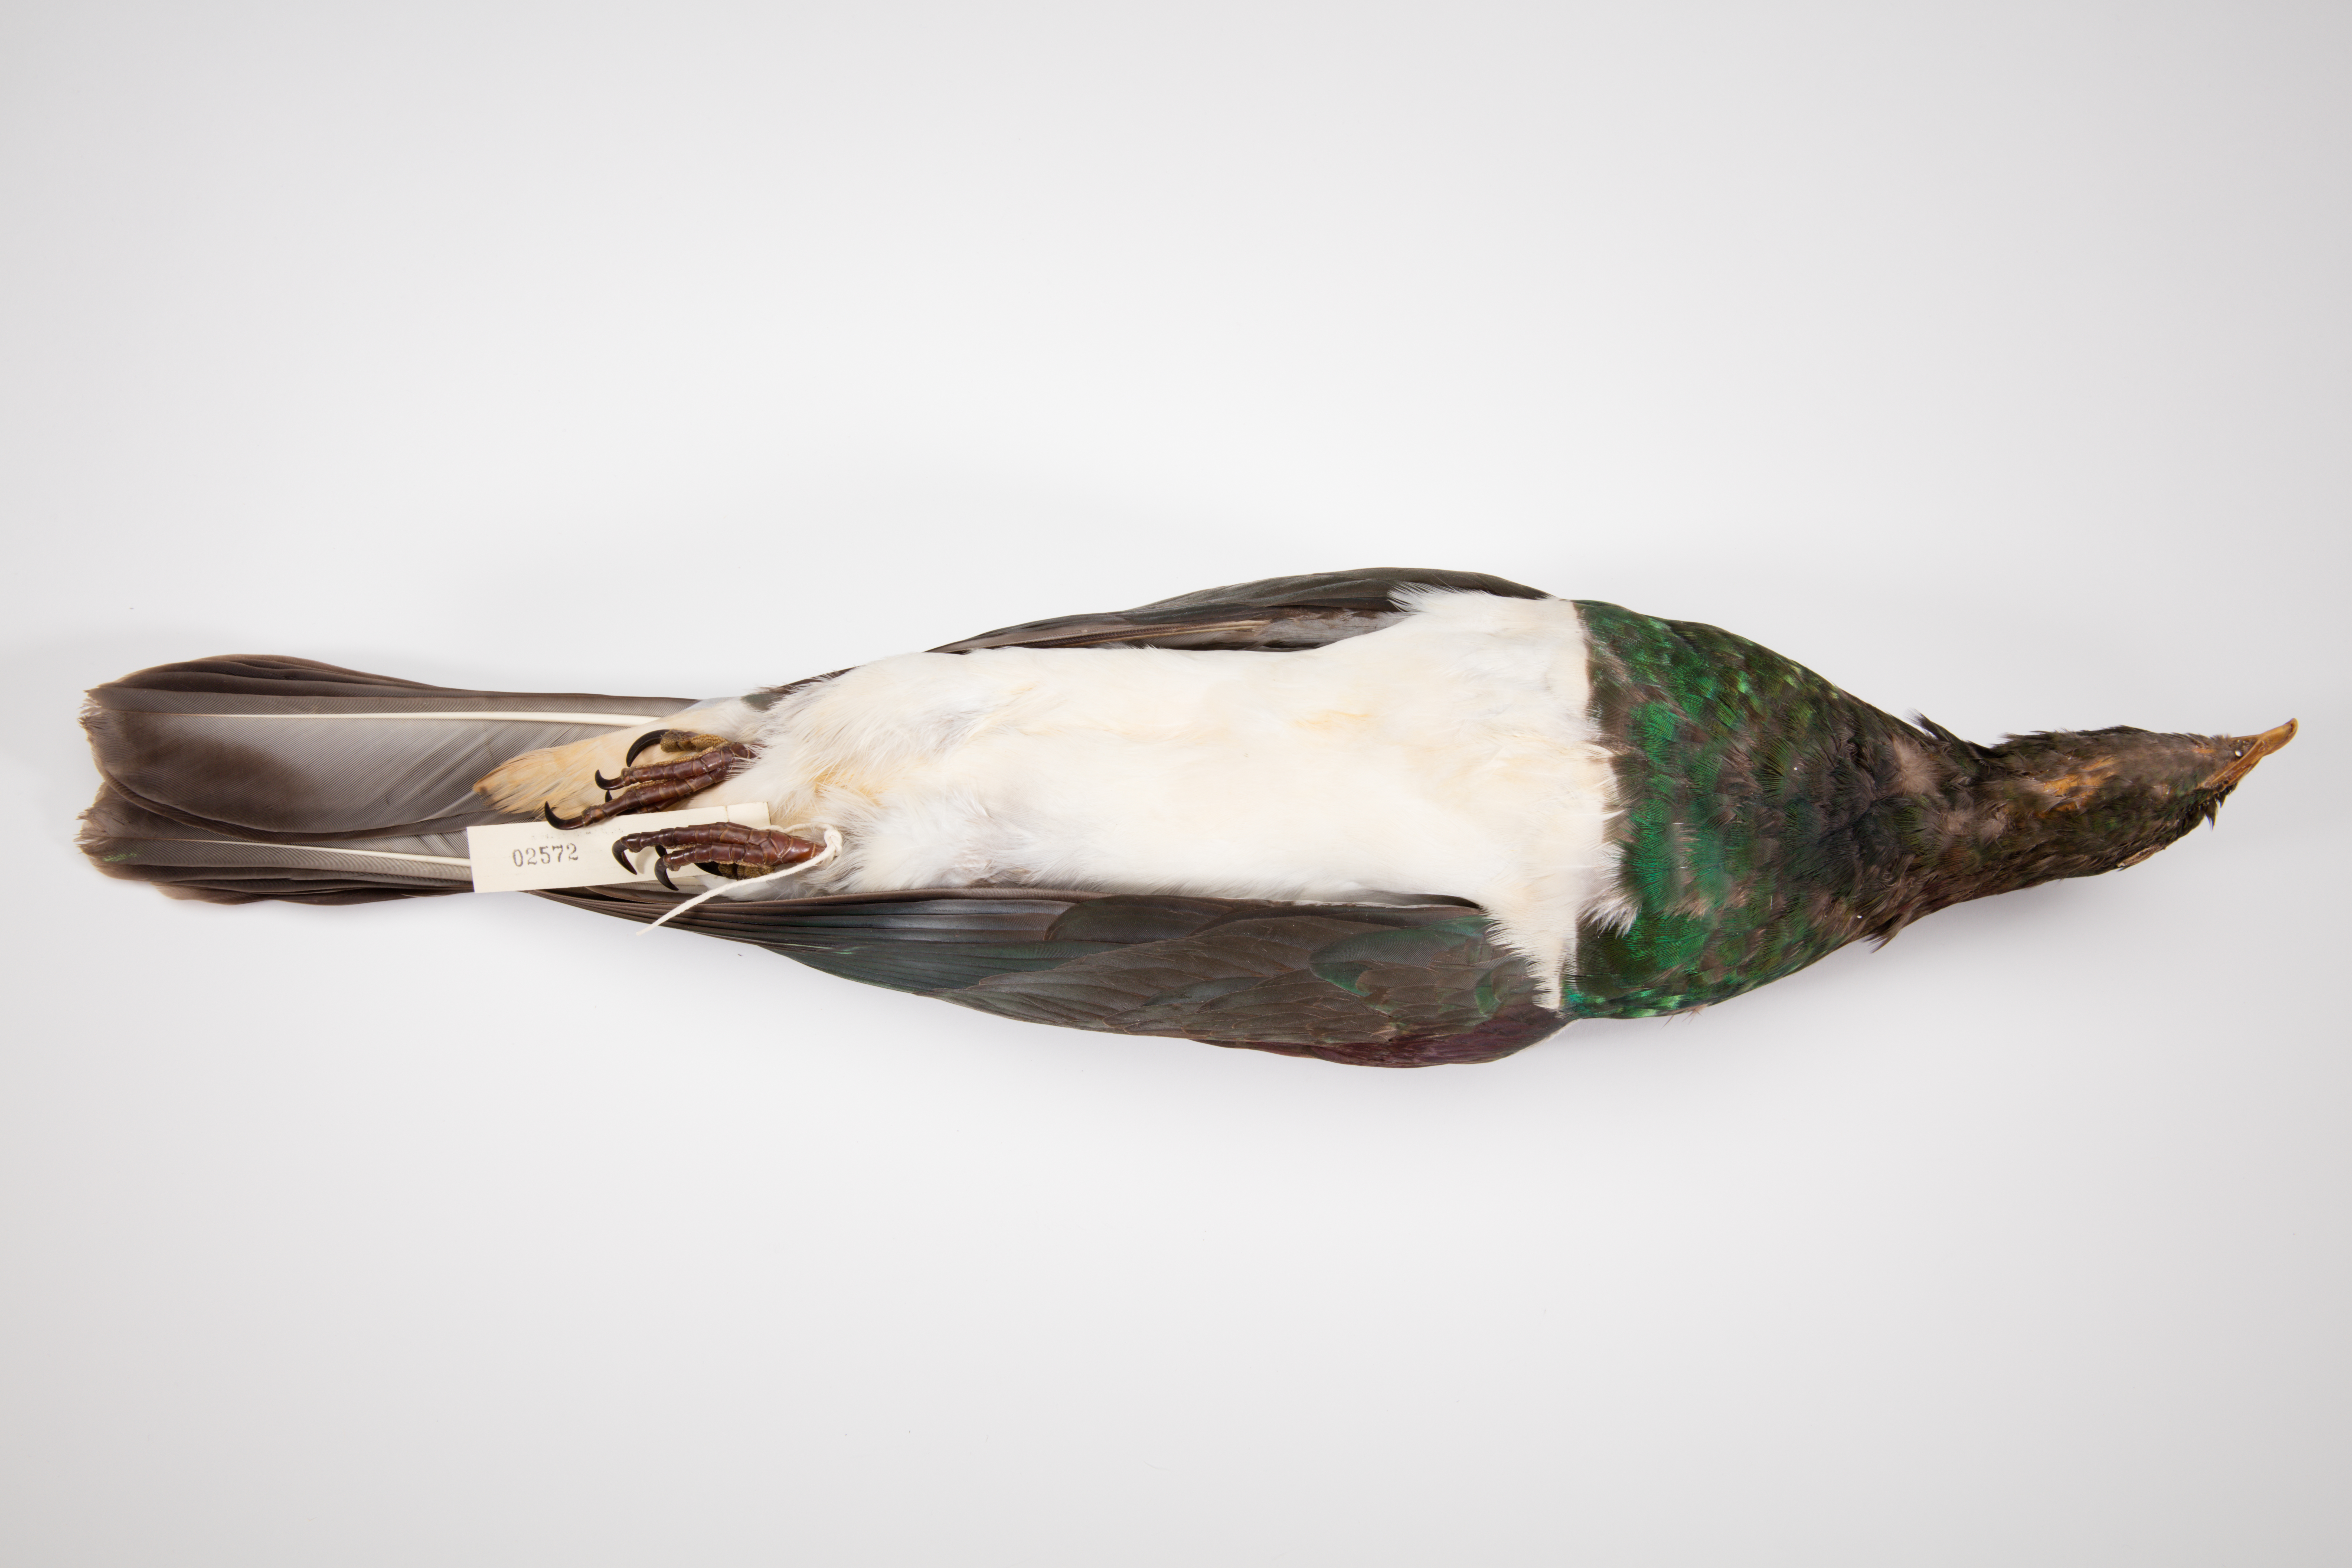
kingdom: Animalia
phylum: Chordata
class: Aves
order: Columbiformes
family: Columbidae
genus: Hemiphaga
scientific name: Hemiphaga novaeseelandiae
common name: New zealand pigeon
